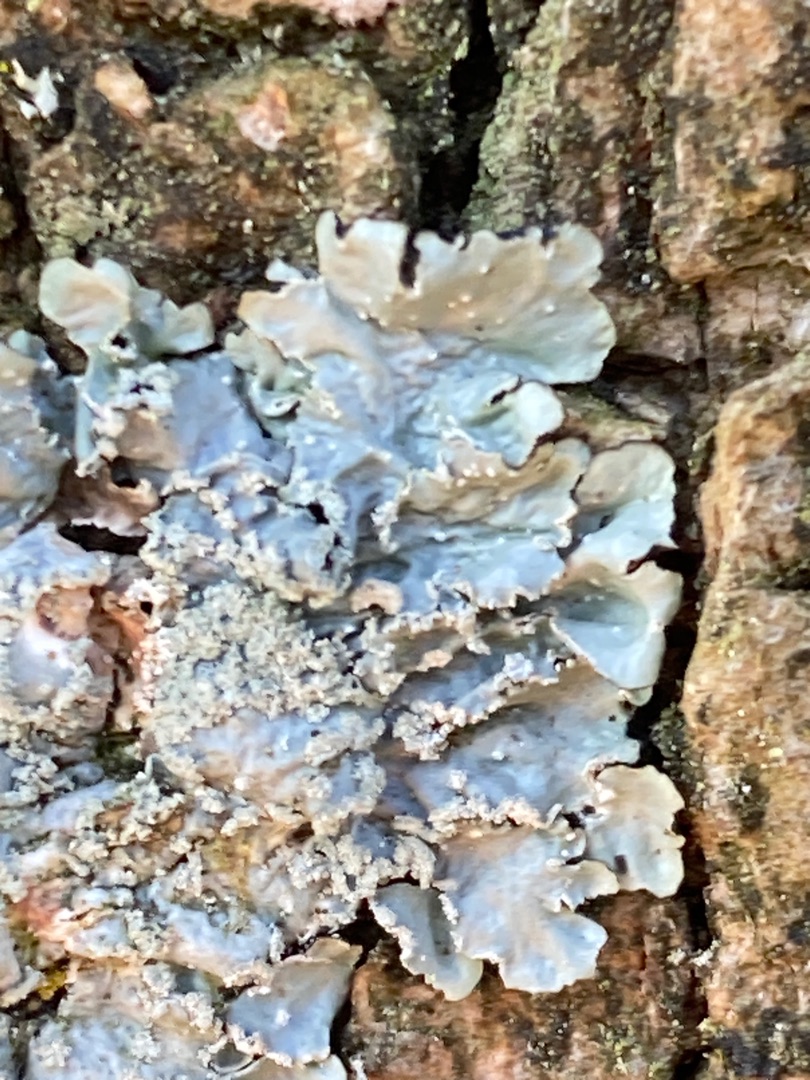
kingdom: Fungi
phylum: Ascomycota
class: Lecanoromycetes
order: Caliciales
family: Physciaceae
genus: Physconia
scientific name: Physconia
